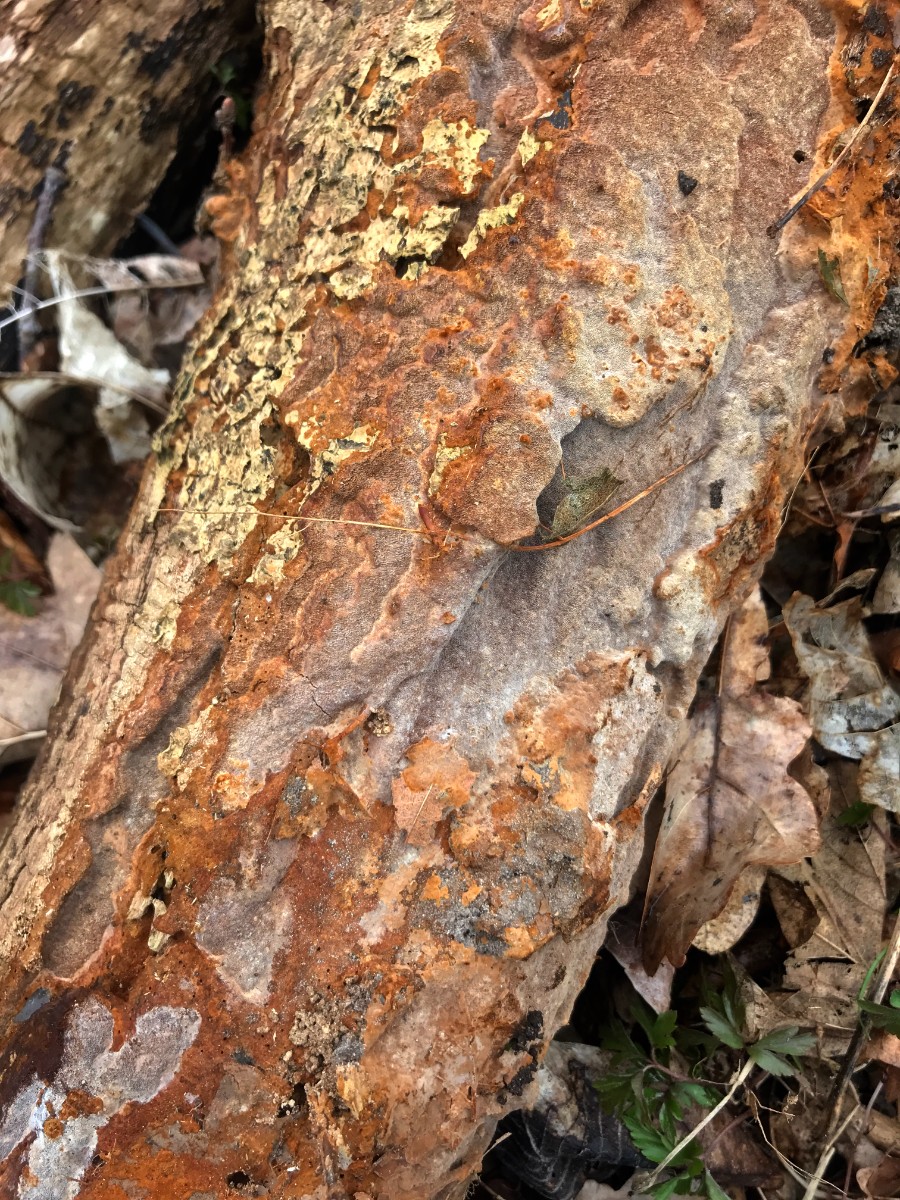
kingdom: Fungi
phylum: Basidiomycota
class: Agaricomycetes
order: Hymenochaetales
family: Hymenochaetaceae
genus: Fuscoporia
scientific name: Fuscoporia ferrea
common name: skorpe-ildporesvamp
